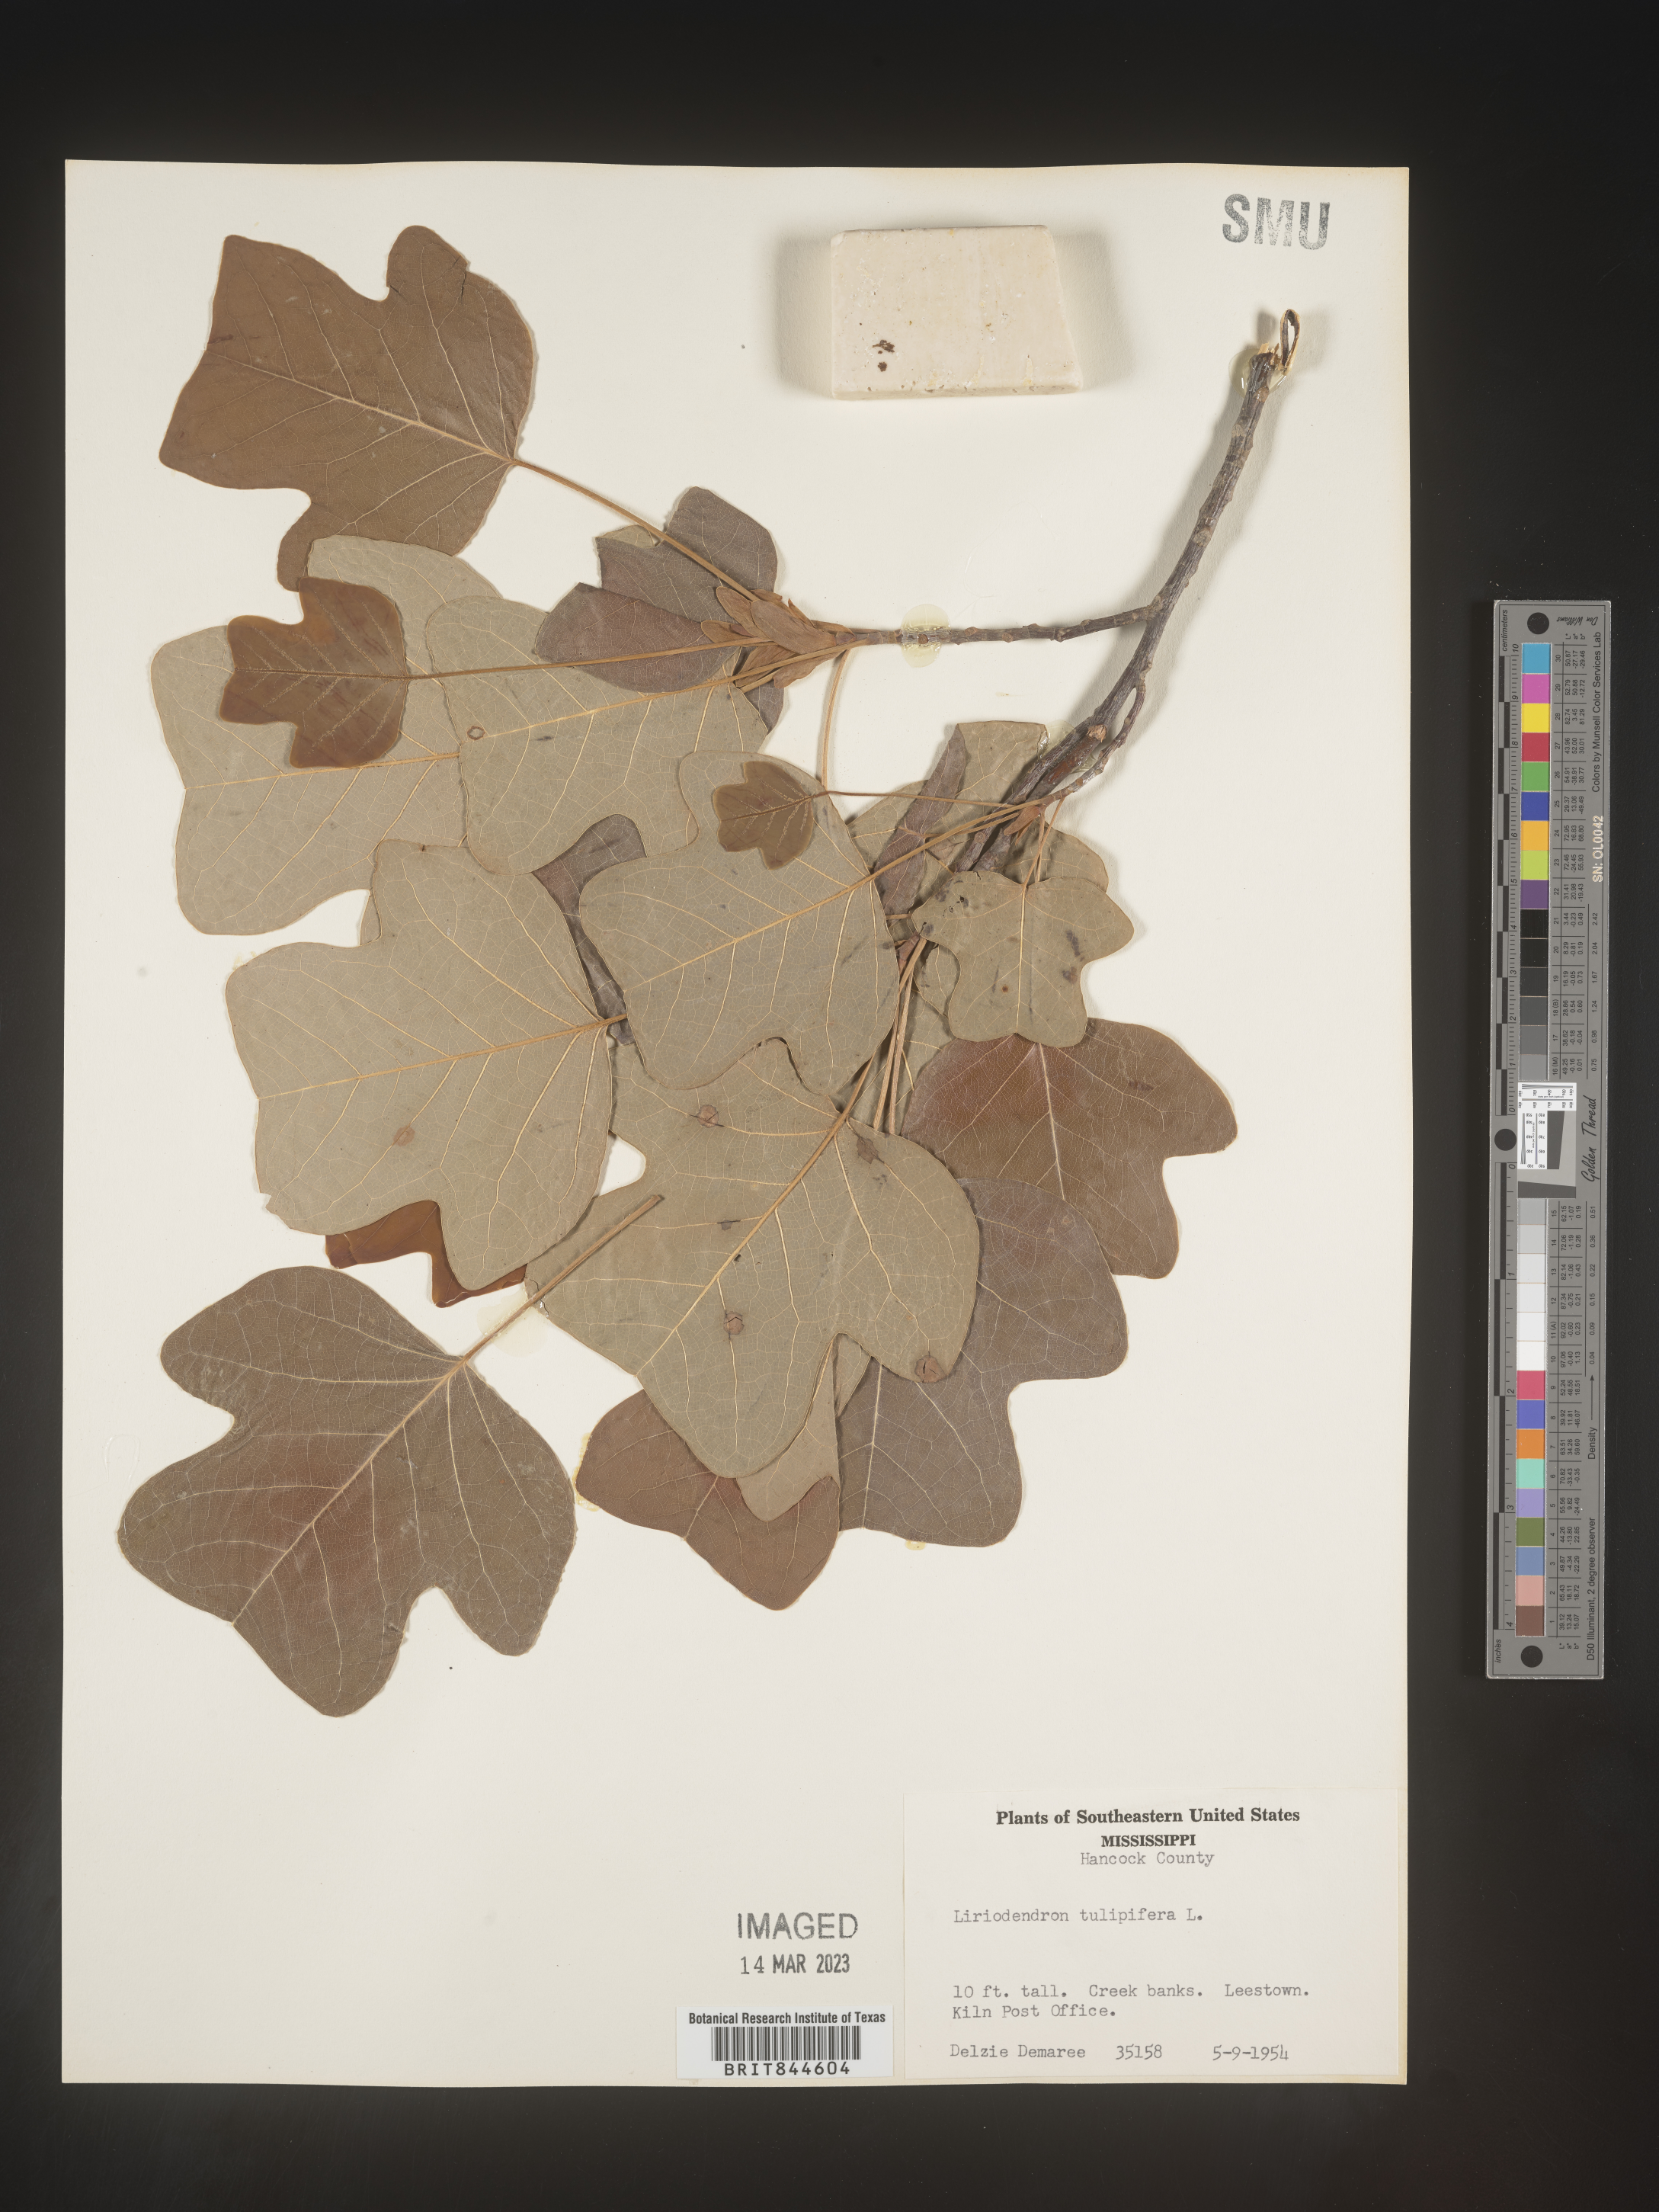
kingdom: Plantae
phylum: Tracheophyta
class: Magnoliopsida
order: Magnoliales
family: Magnoliaceae
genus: Liriodendron
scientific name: Liriodendron tulipifera
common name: Tulip tree
